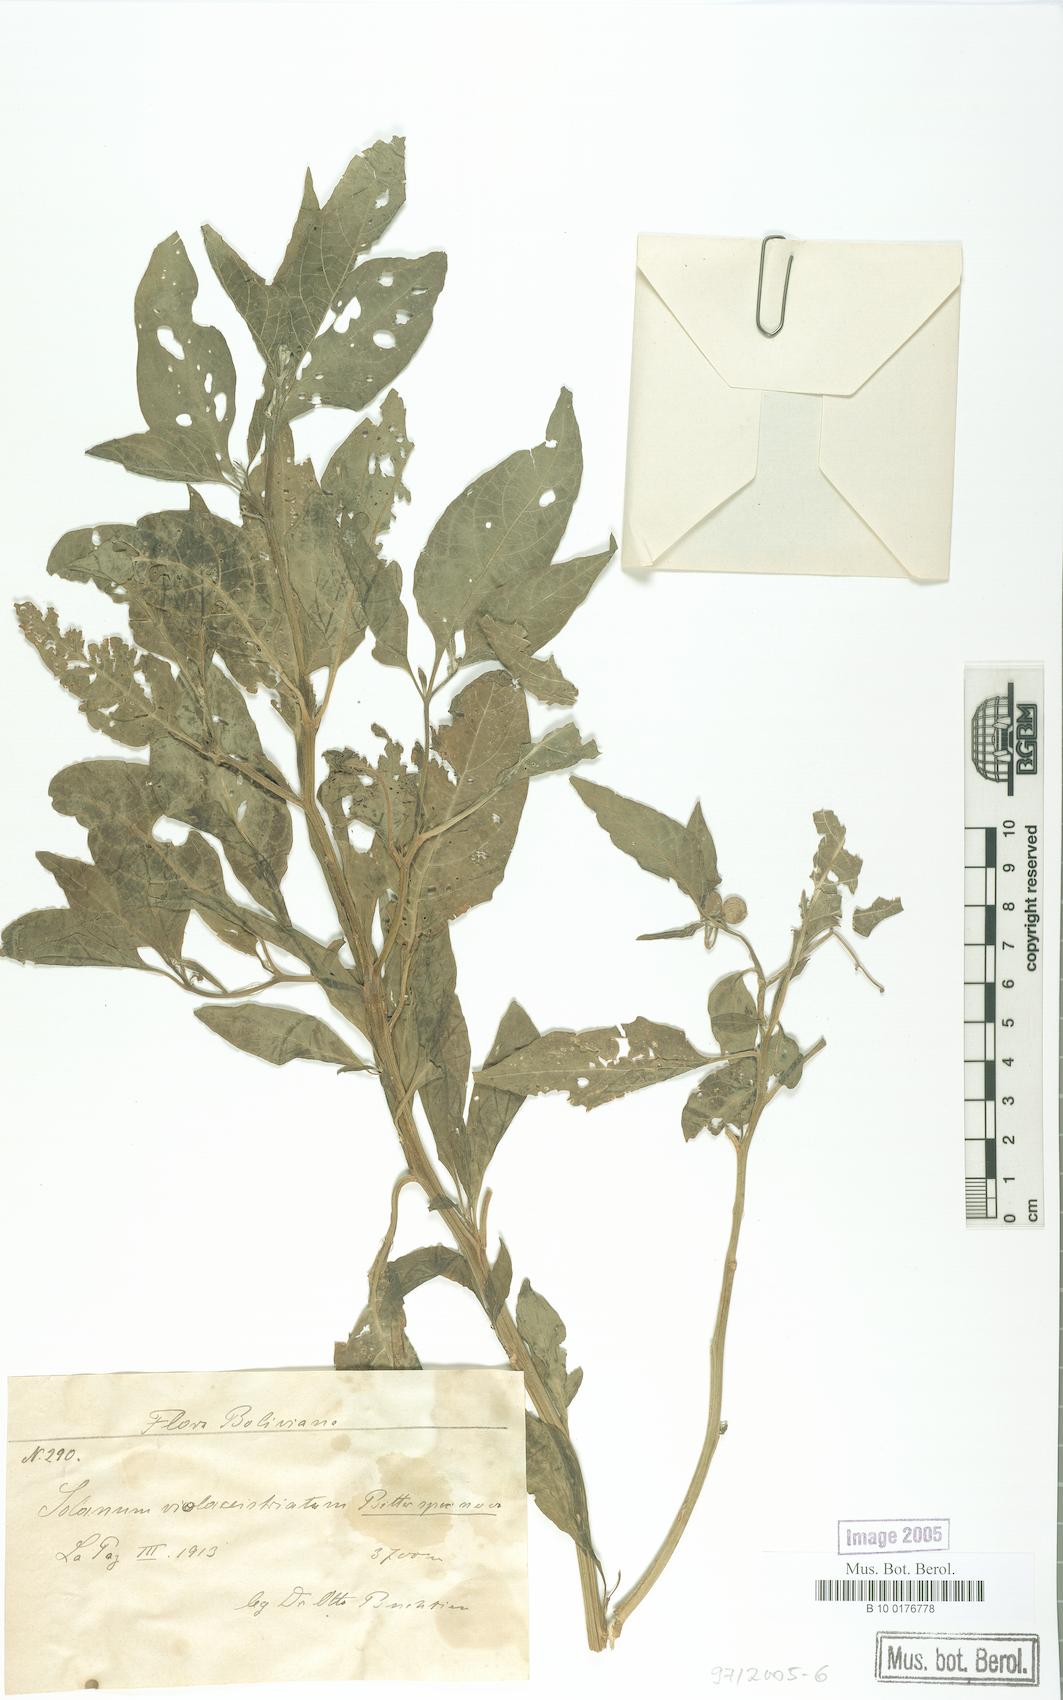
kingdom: Plantae
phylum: Tracheophyta
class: Magnoliopsida
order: Solanales
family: Solanaceae
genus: Solanum
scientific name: Solanum polytrichostylum
